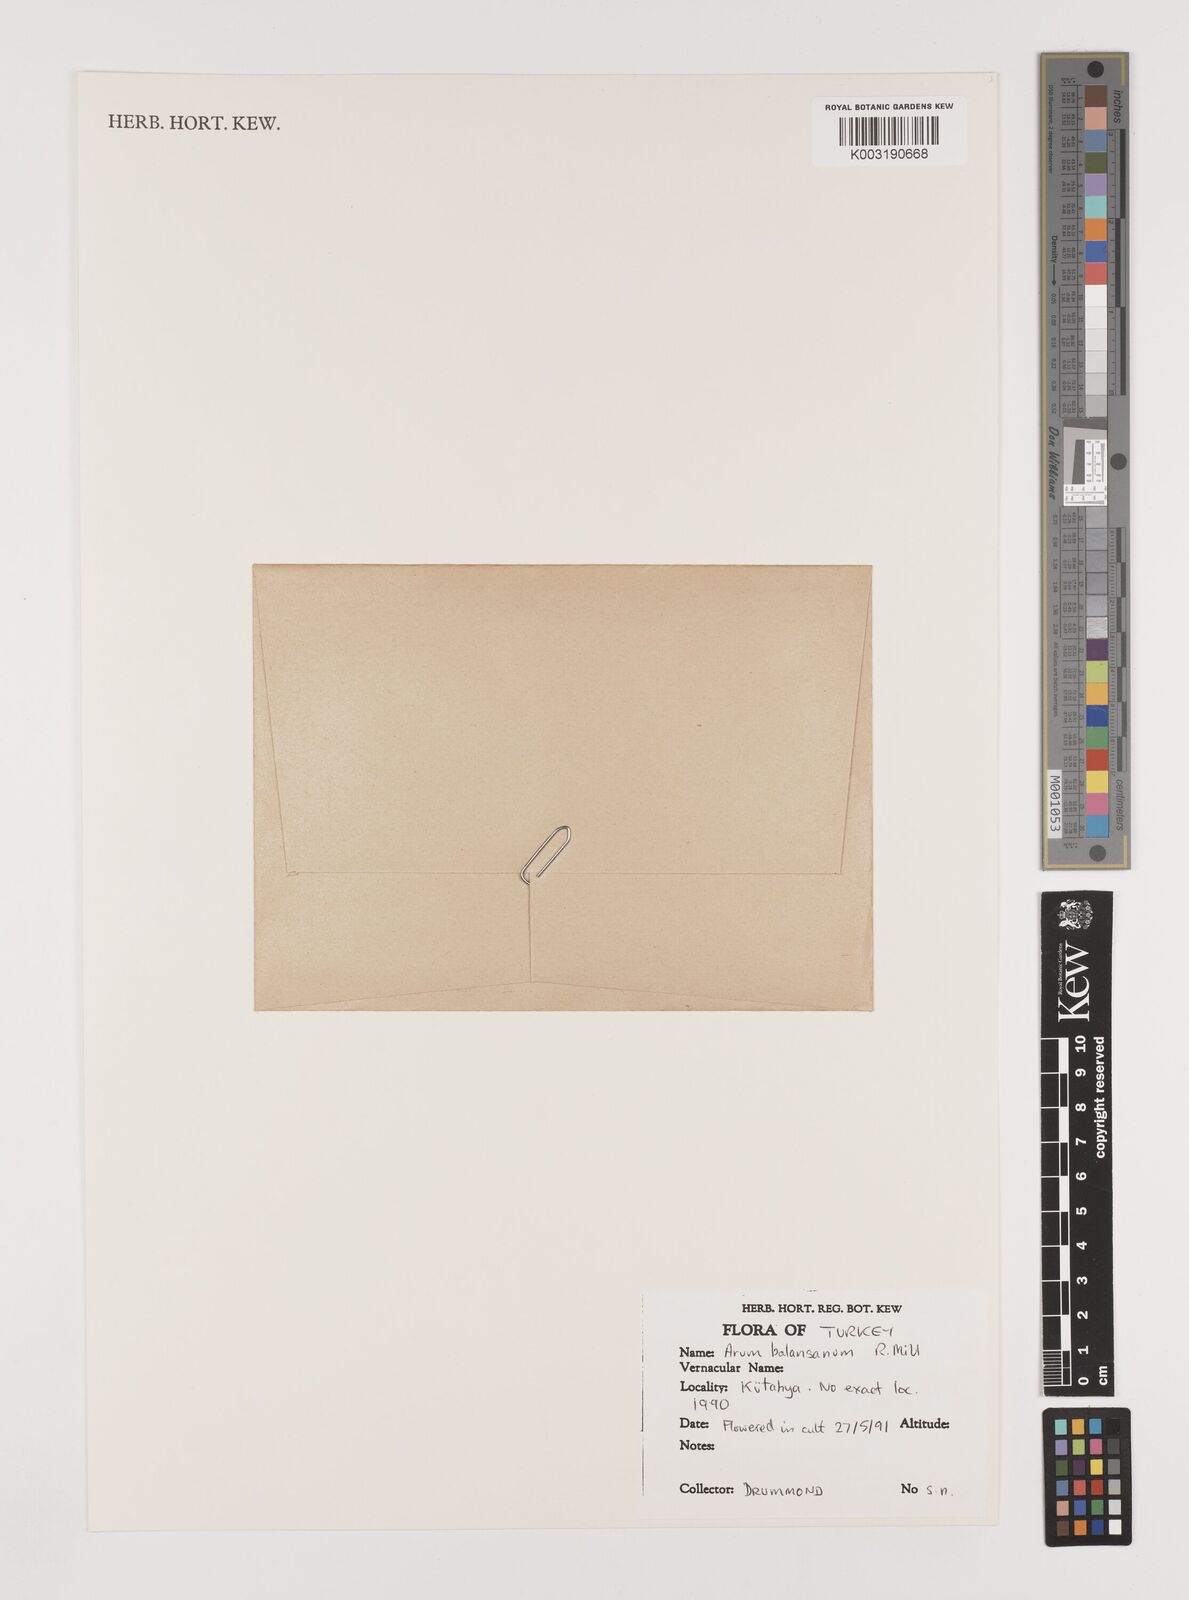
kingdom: Plantae
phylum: Tracheophyta
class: Liliopsida
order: Alismatales
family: Araceae
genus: Arum
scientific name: Arum orientale
